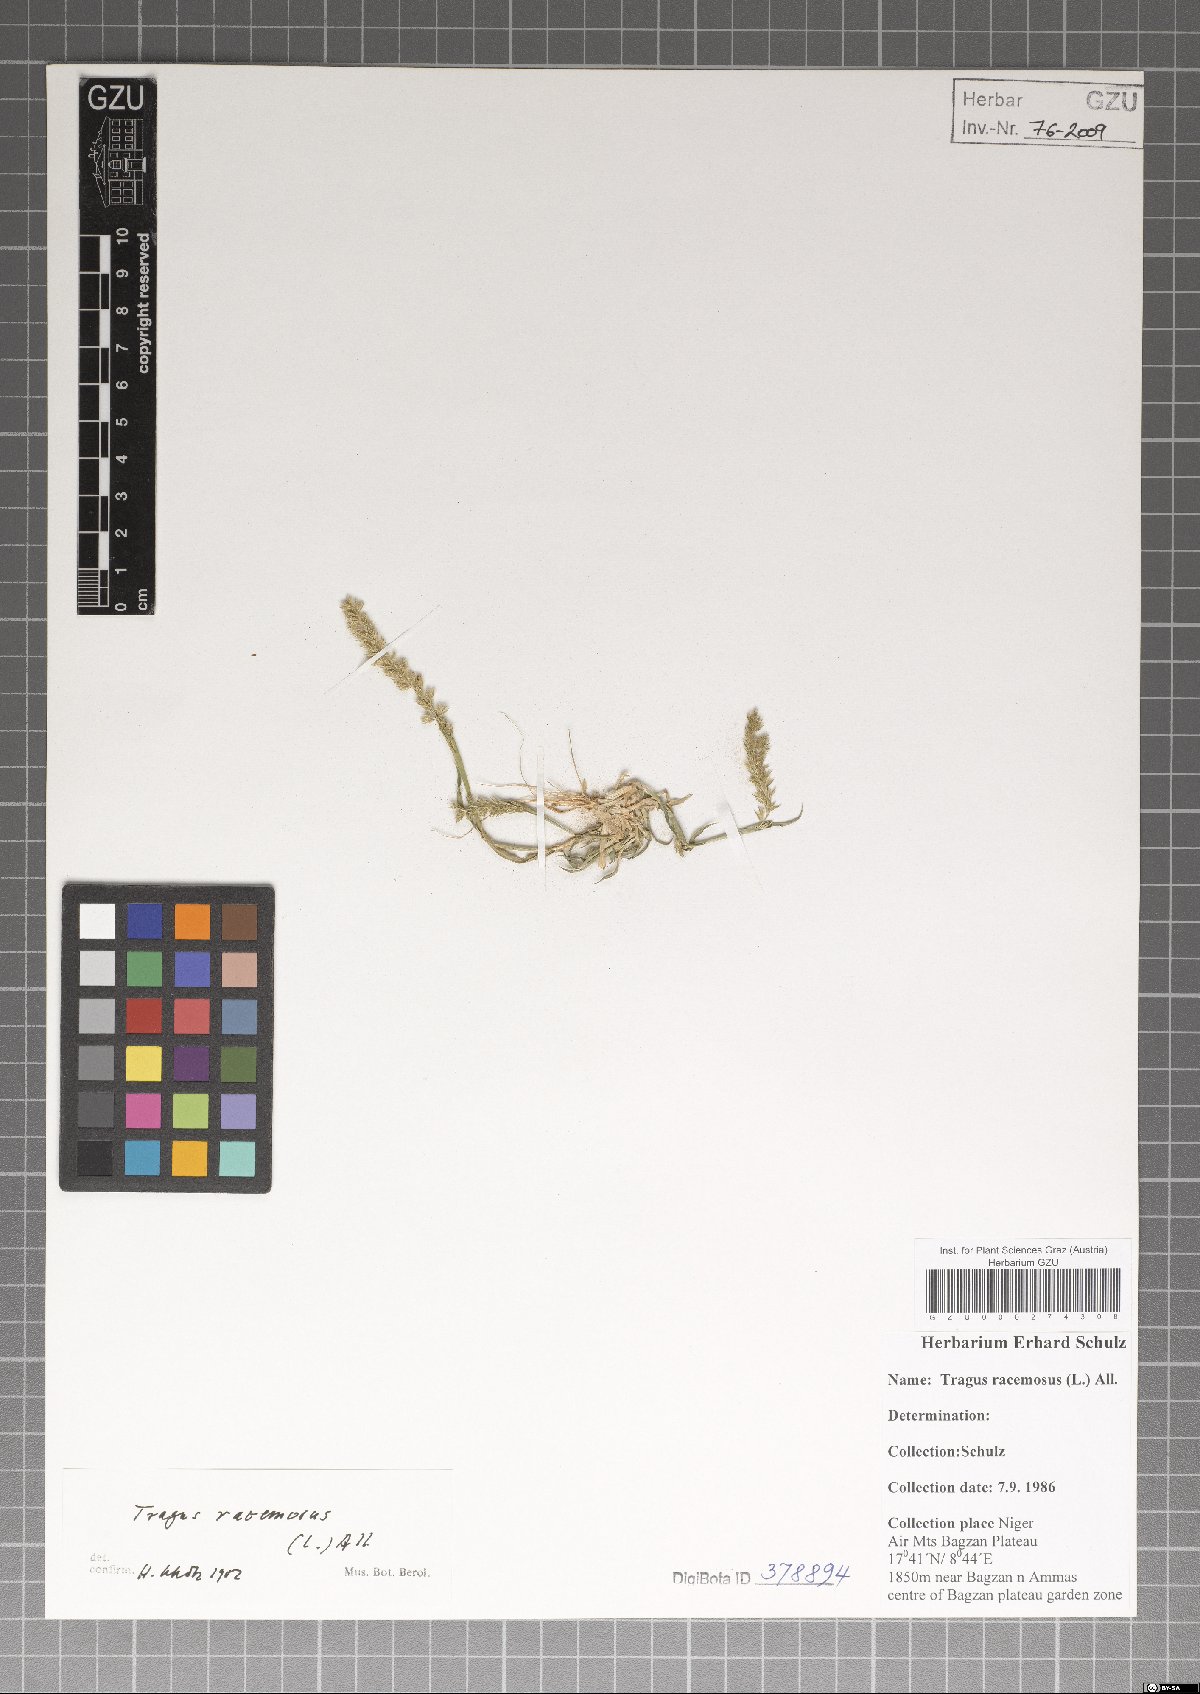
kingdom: Plantae
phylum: Tracheophyta
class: Liliopsida
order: Poales
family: Poaceae
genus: Tragus
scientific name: Tragus racemosus
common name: European bur-grass
